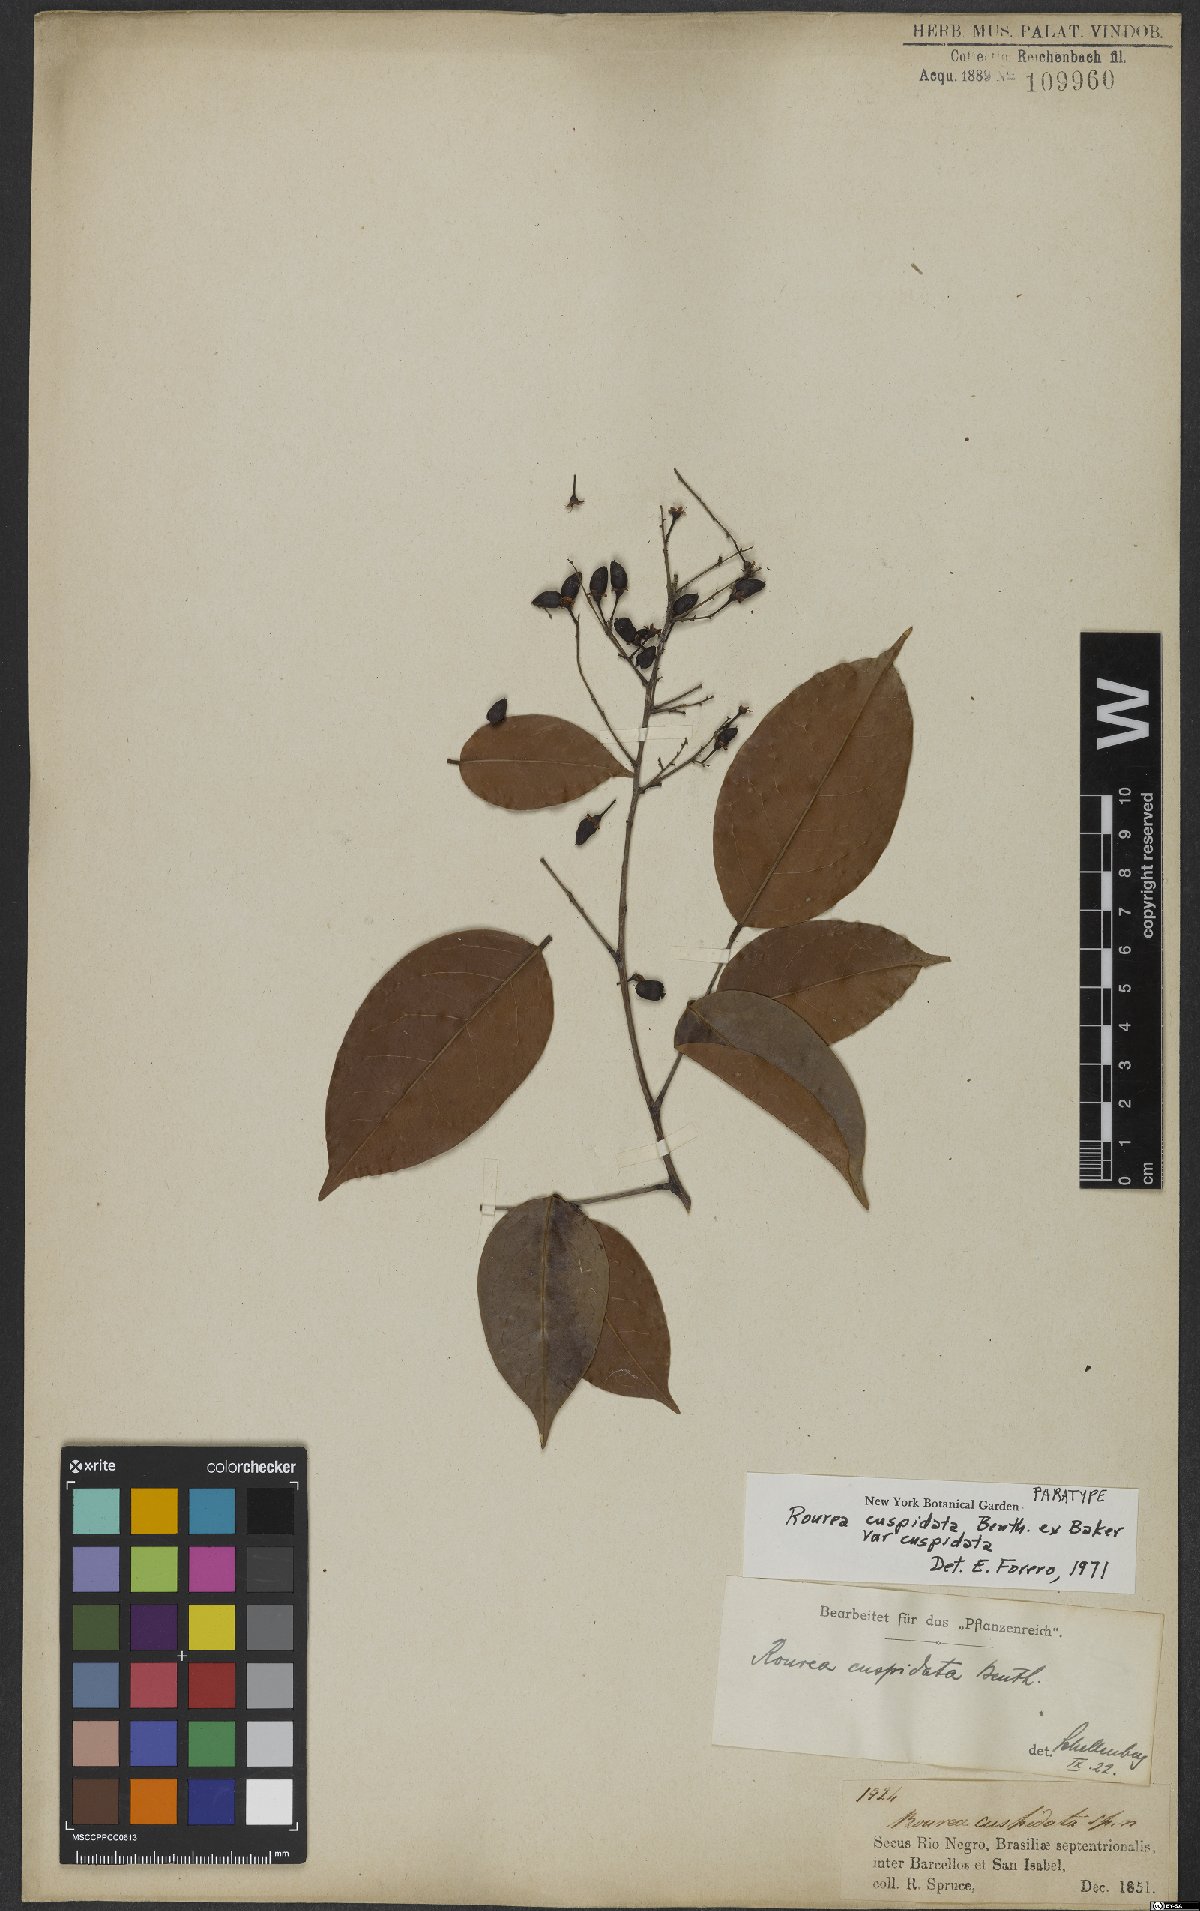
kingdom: Plantae
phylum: Tracheophyta
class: Magnoliopsida
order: Oxalidales
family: Connaraceae
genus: Rourea
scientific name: Rourea cuspidata
